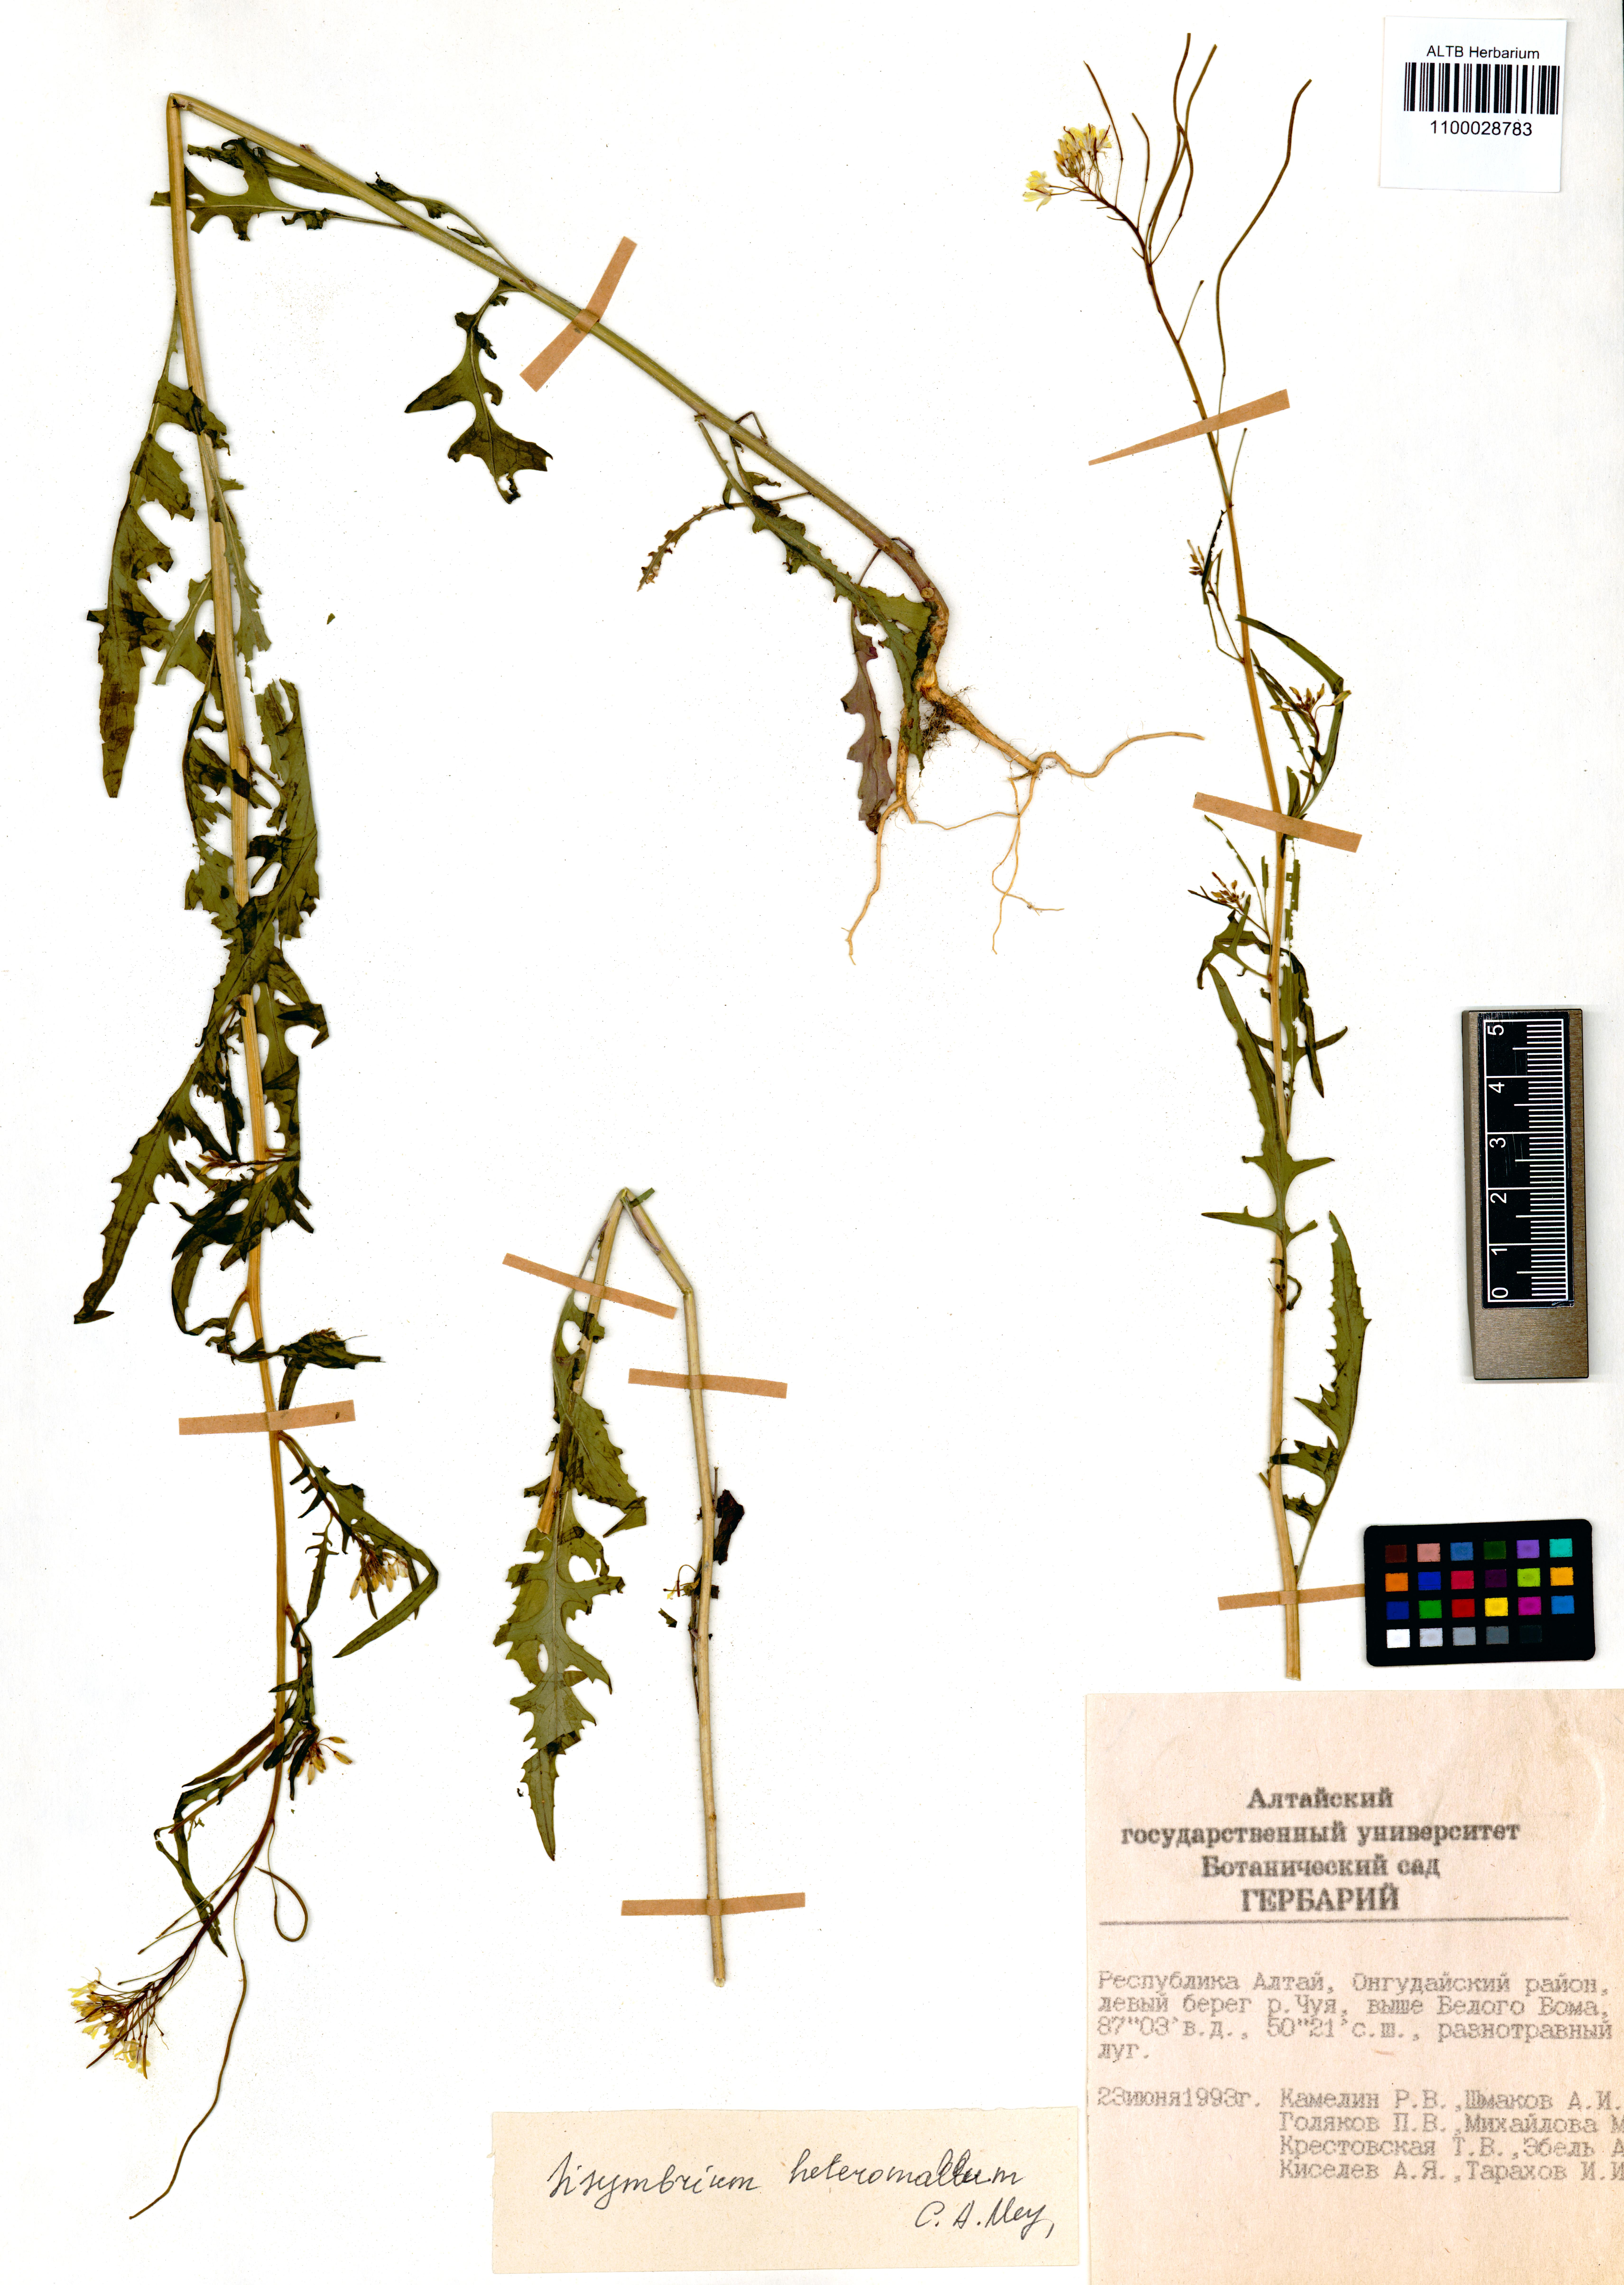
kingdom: Plantae
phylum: Tracheophyta
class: Magnoliopsida
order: Brassicales
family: Brassicaceae
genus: Sisymbrium
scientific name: Sisymbrium heteromallum
